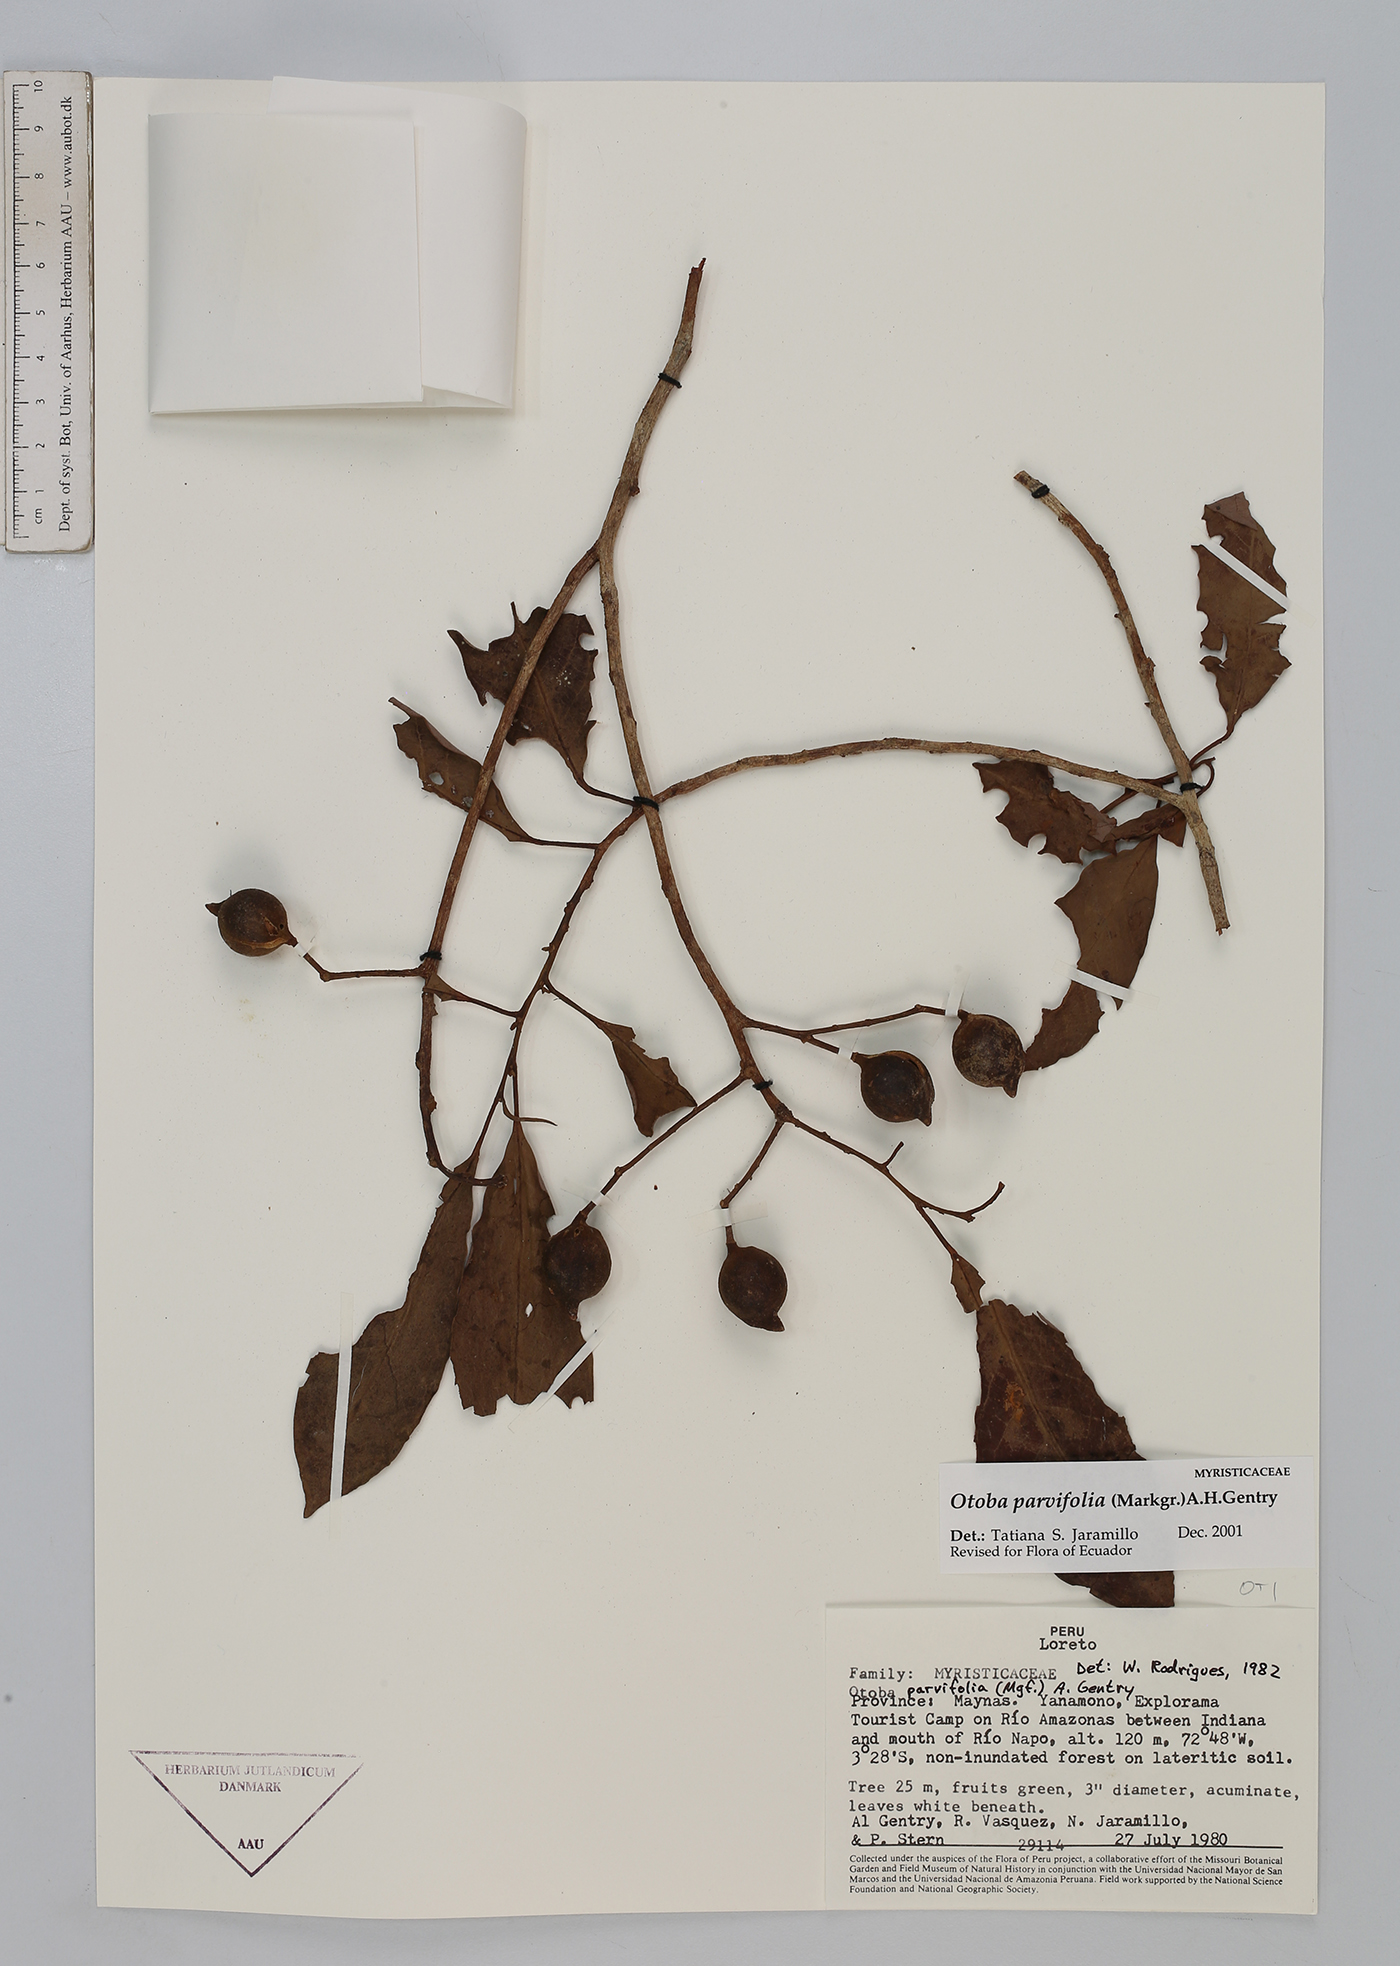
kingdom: Plantae
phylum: Tracheophyta
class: Magnoliopsida
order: Magnoliales
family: Myristicaceae
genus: Otoba
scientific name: Otoba parvifolia
